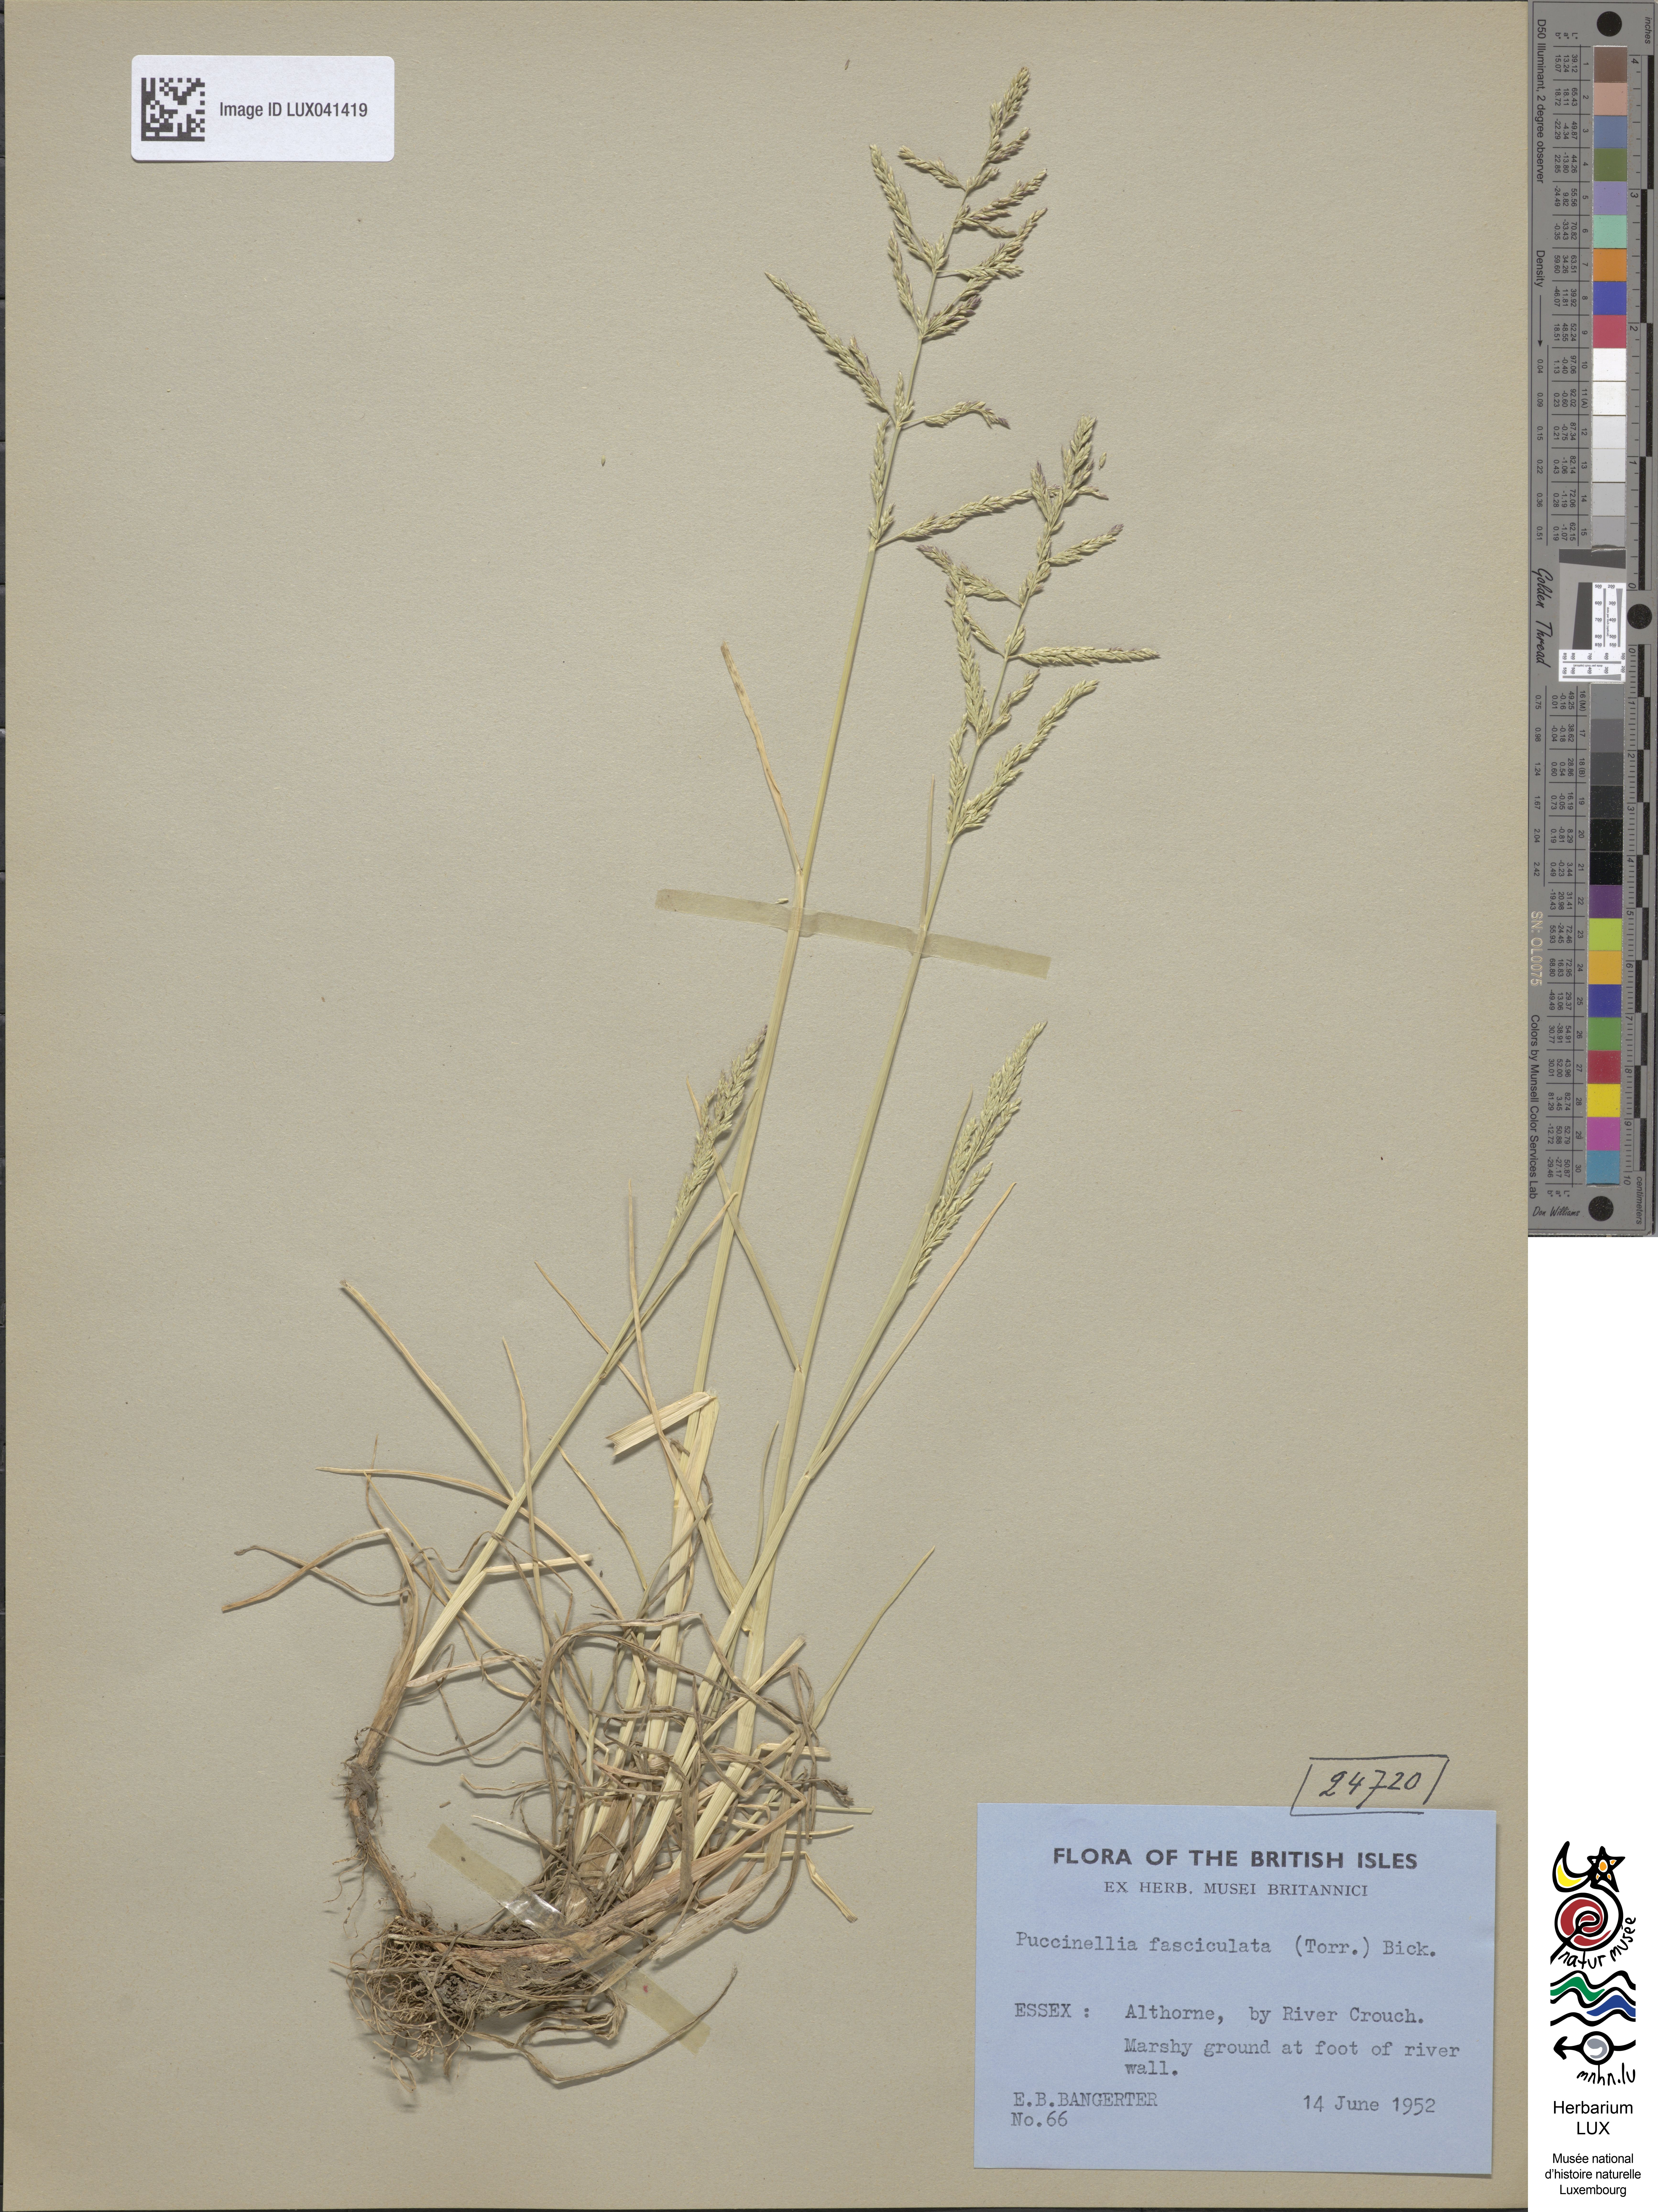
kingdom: Plantae
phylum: Tracheophyta
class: Liliopsida
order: Poales
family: Poaceae
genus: Puccinellia
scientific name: Puccinellia fasciculata
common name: Borrer's saltmarsh-grass
